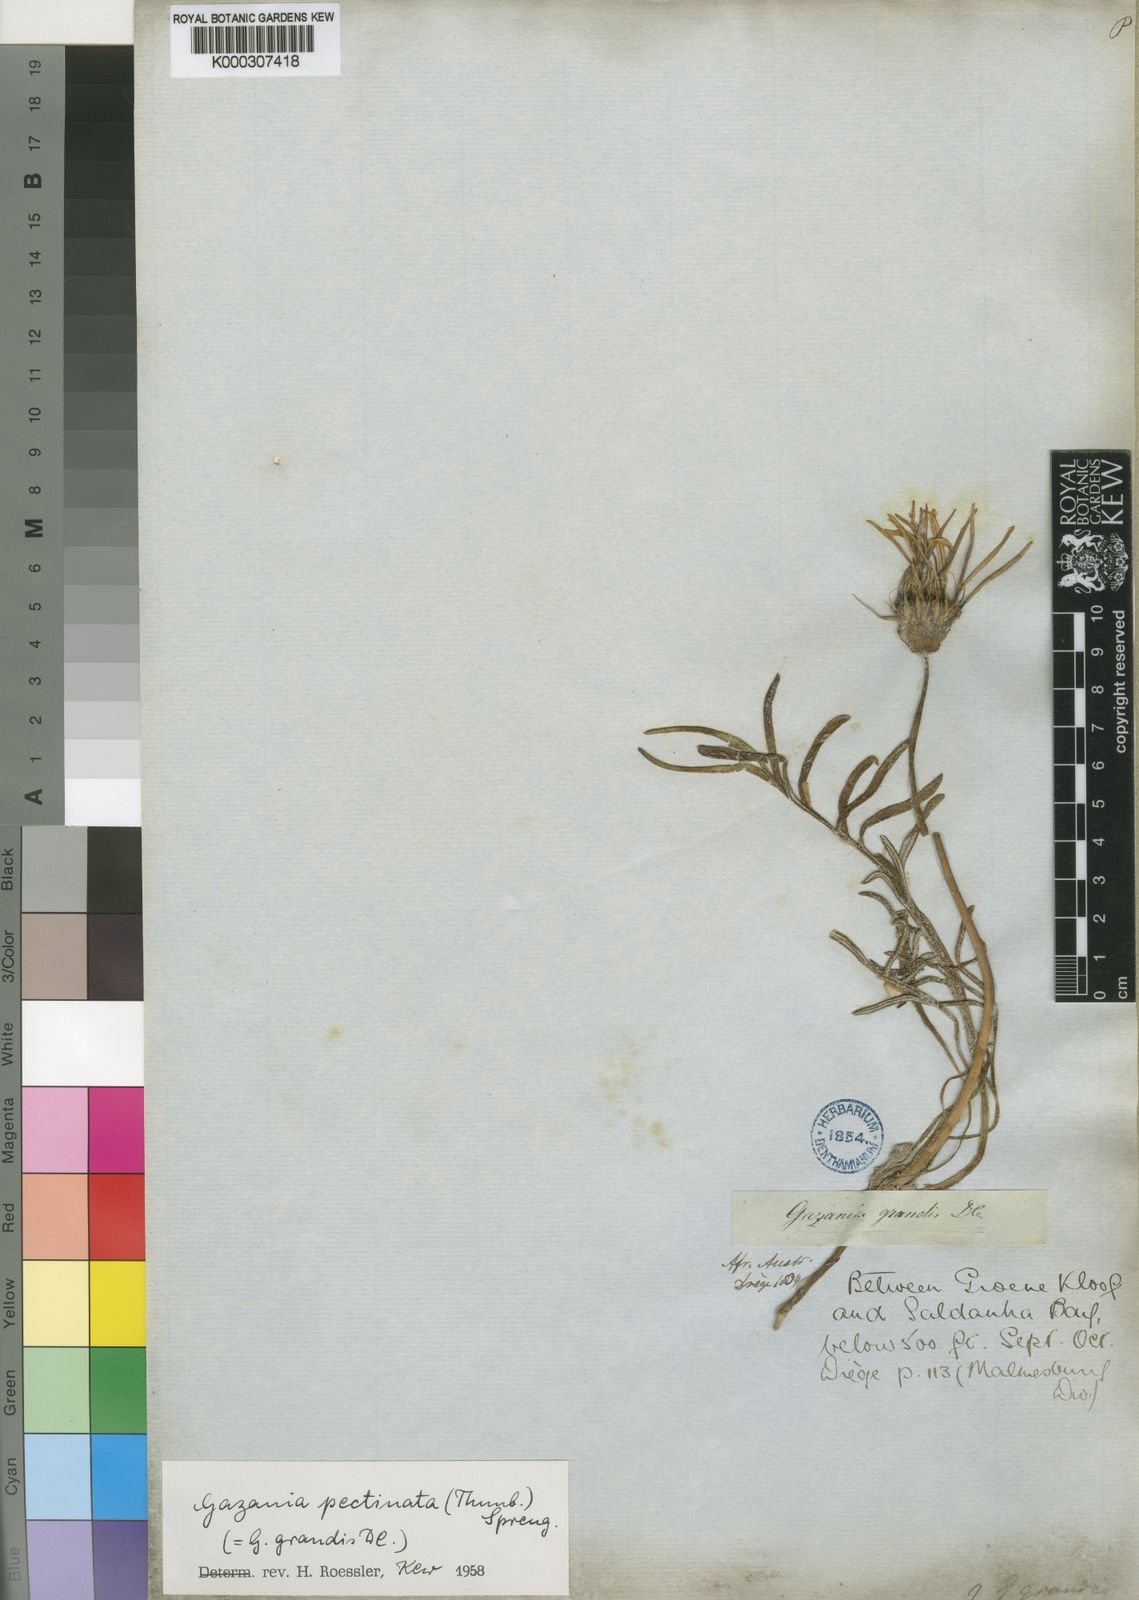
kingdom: Plantae
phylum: Tracheophyta
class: Magnoliopsida
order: Asterales
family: Asteraceae
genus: Gazania
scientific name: Gazania pectinata
